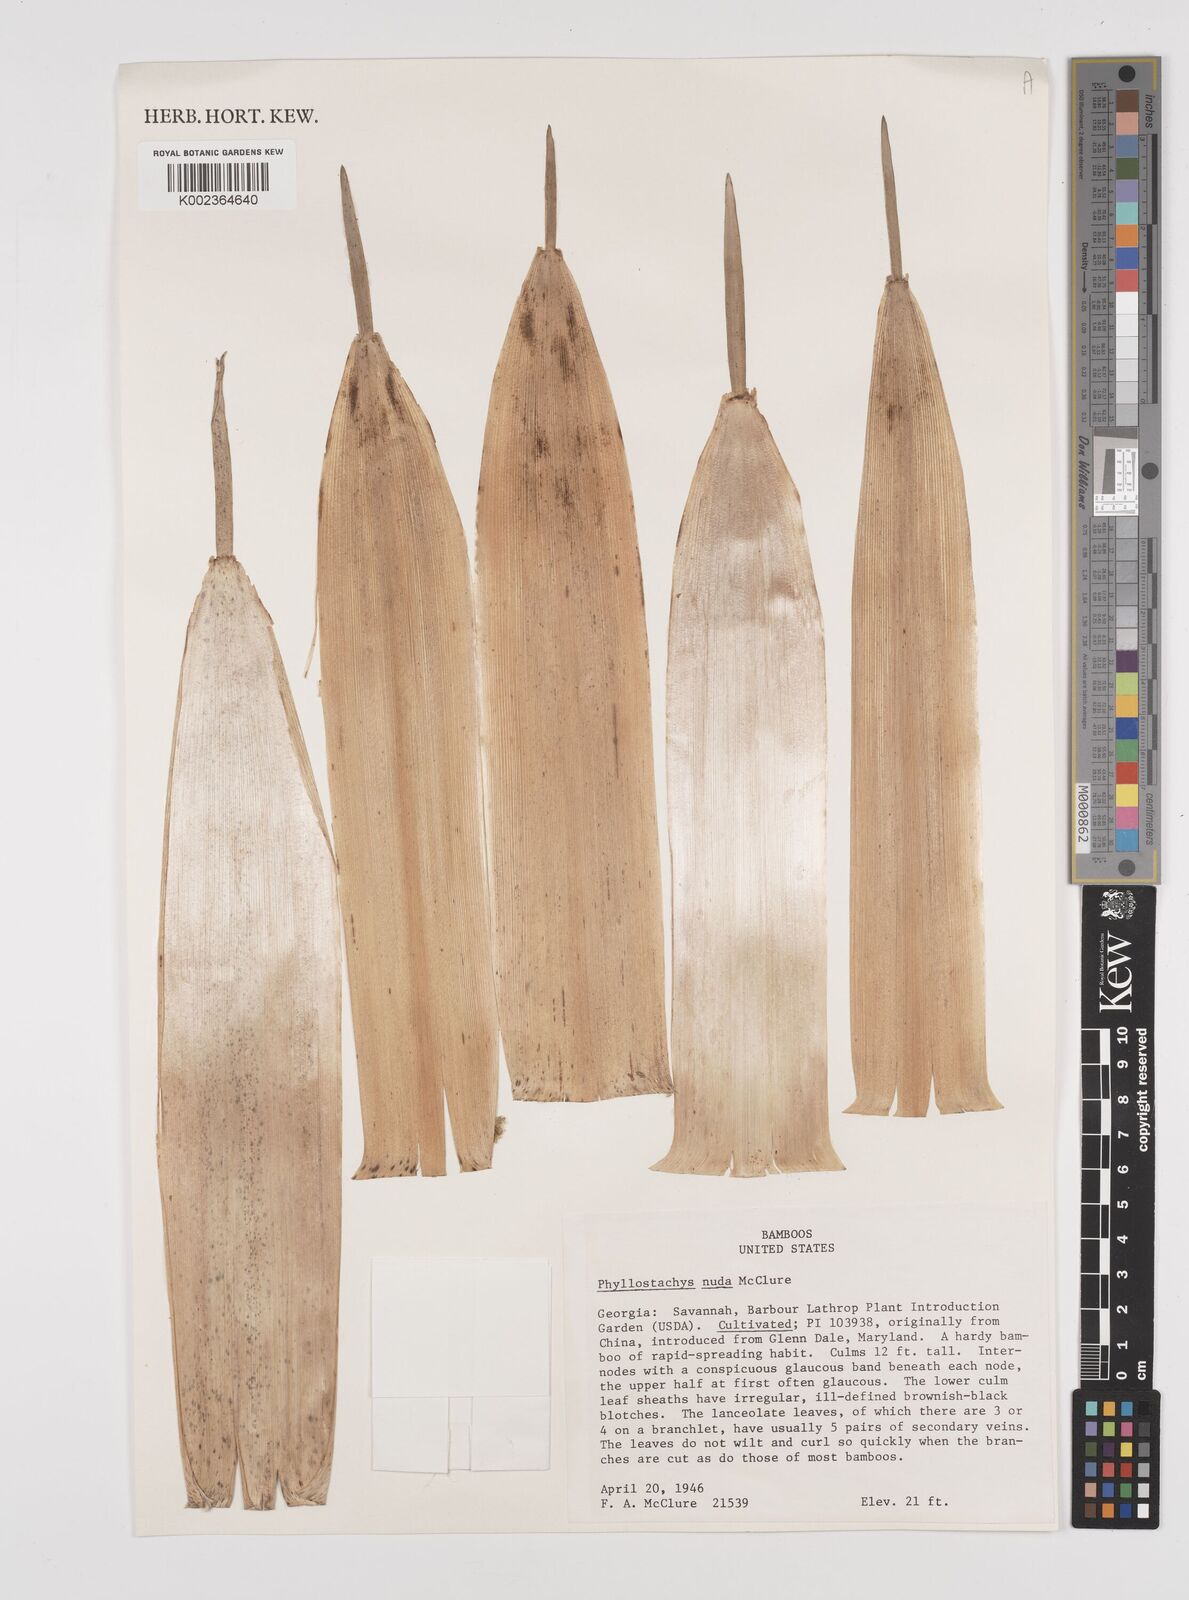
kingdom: Plantae
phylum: Tracheophyta
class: Liliopsida
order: Poales
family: Poaceae
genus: Phyllostachys
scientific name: Phyllostachys nuda
